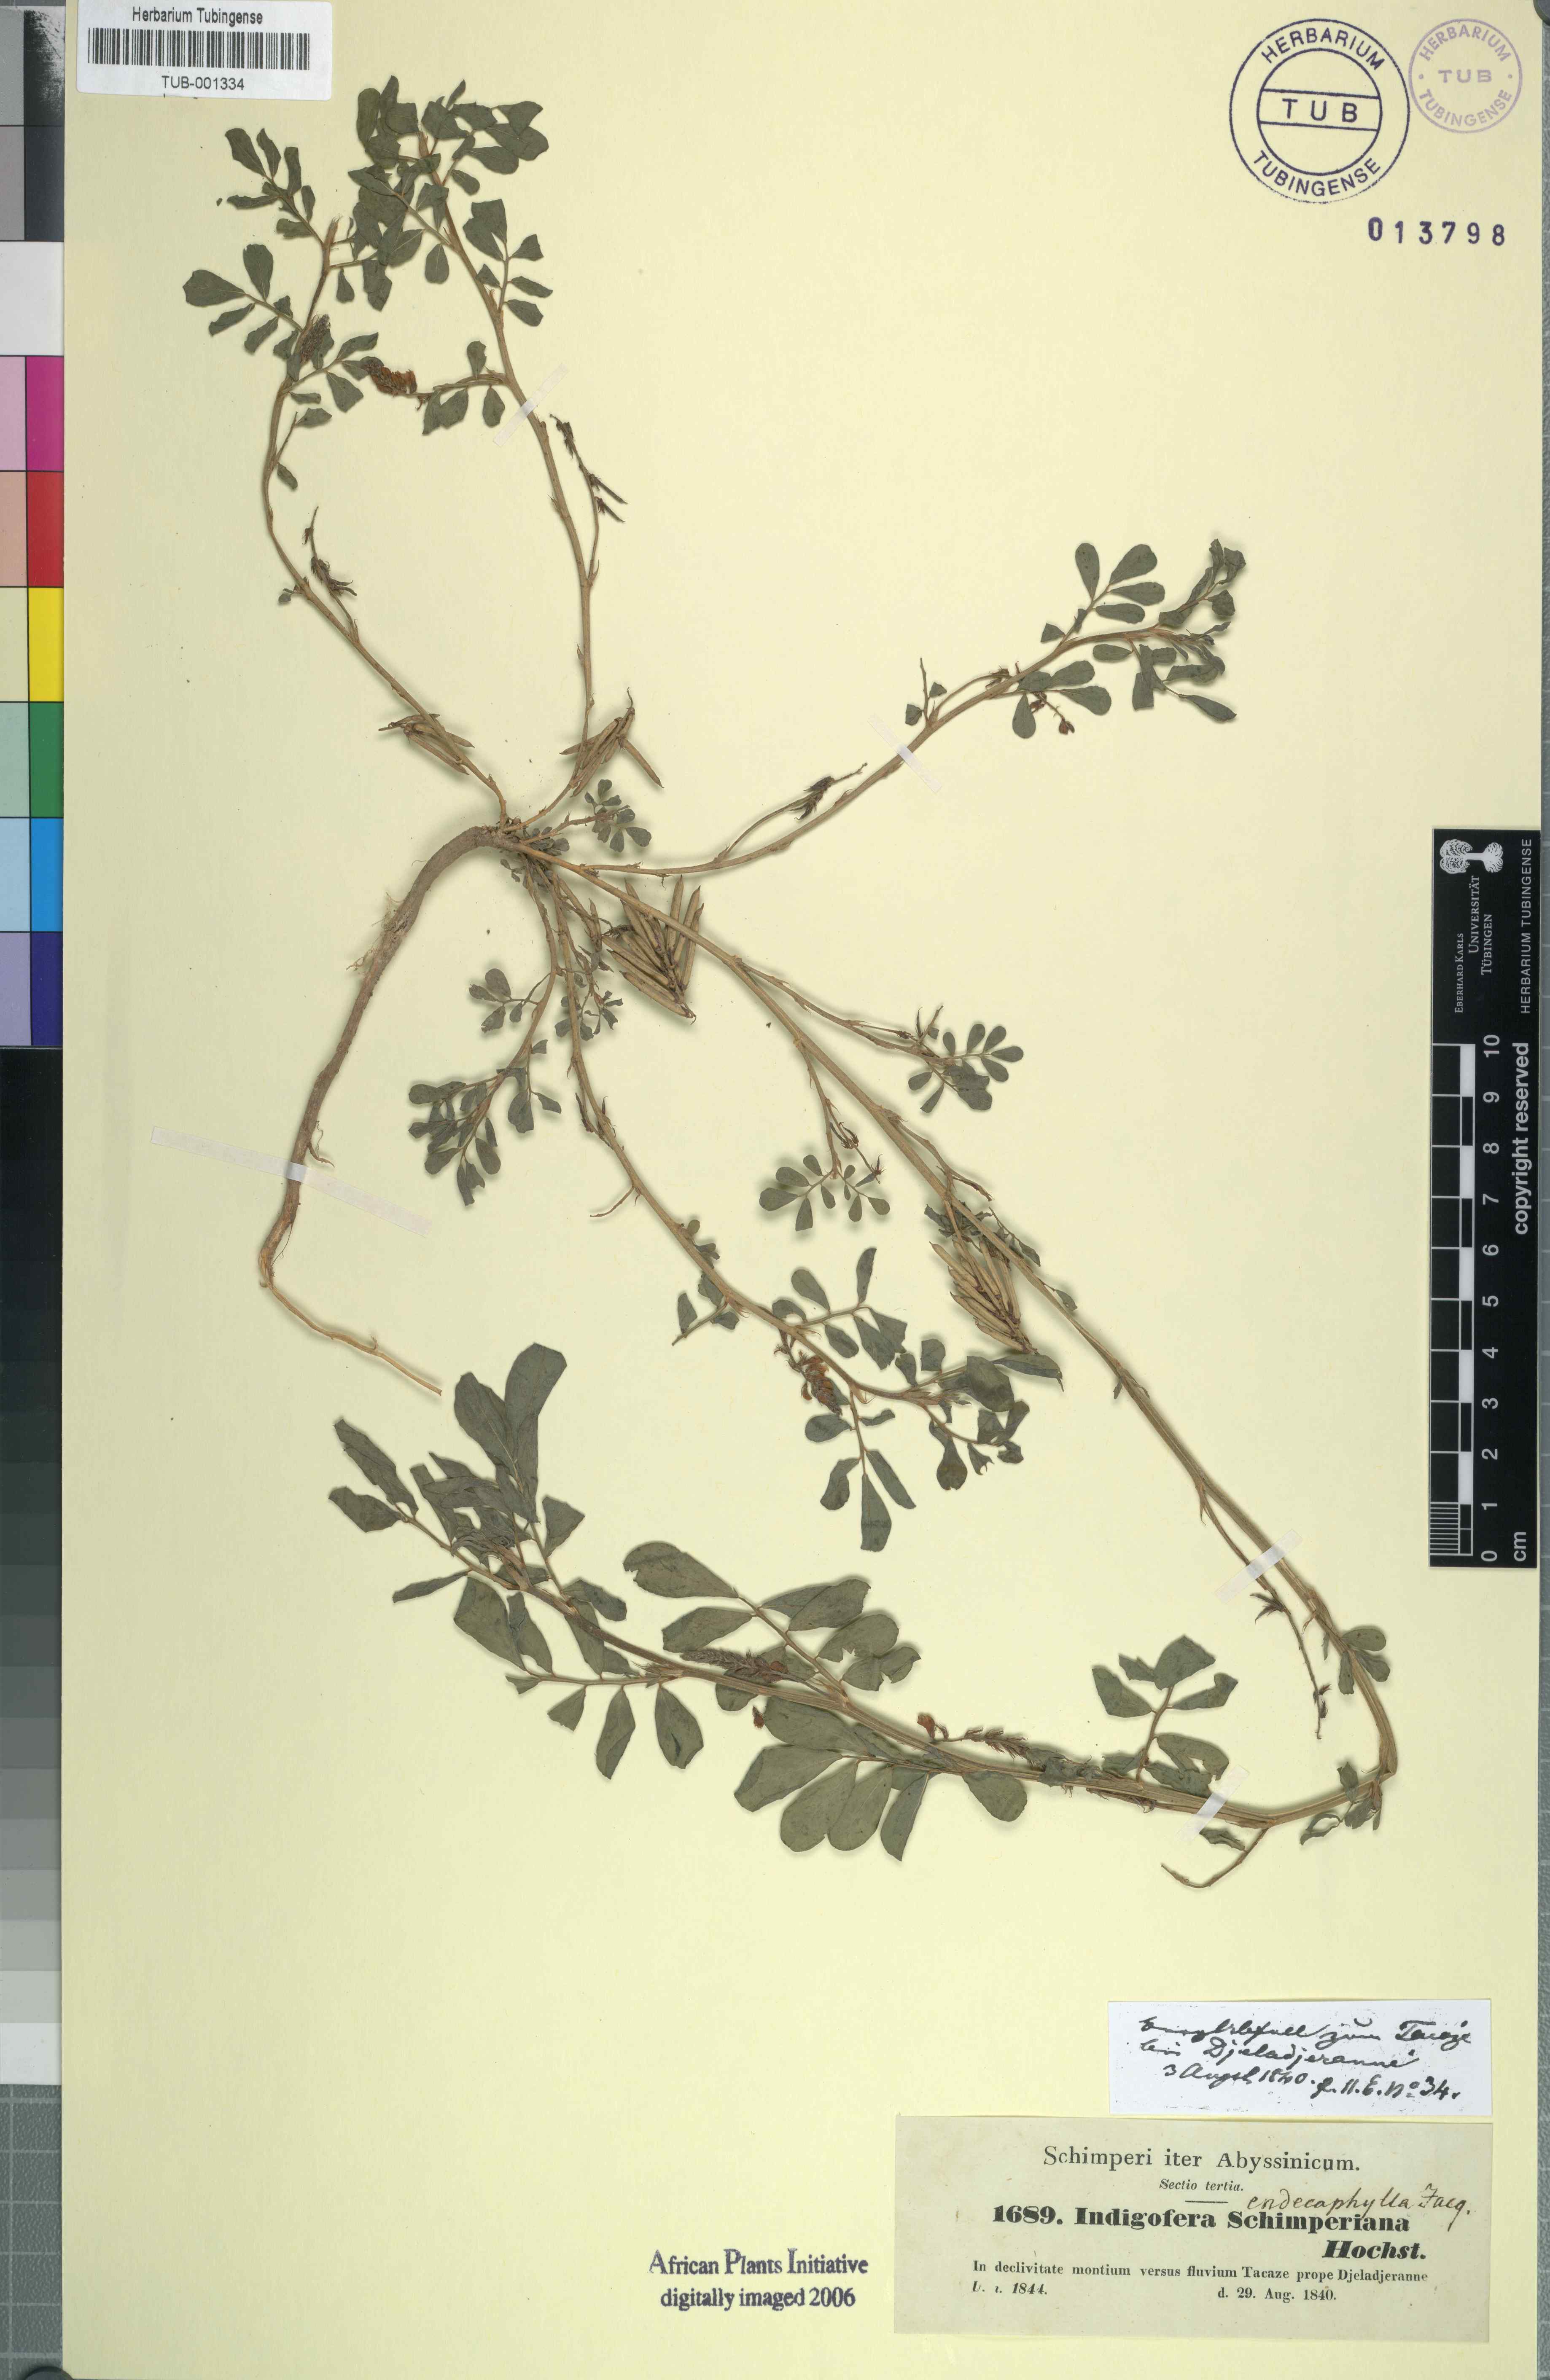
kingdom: Plantae
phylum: Tracheophyta
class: Magnoliopsida
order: Fabales
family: Fabaceae
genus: Indigofera
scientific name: Indigofera hendecaphylla
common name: Trailing indigo
